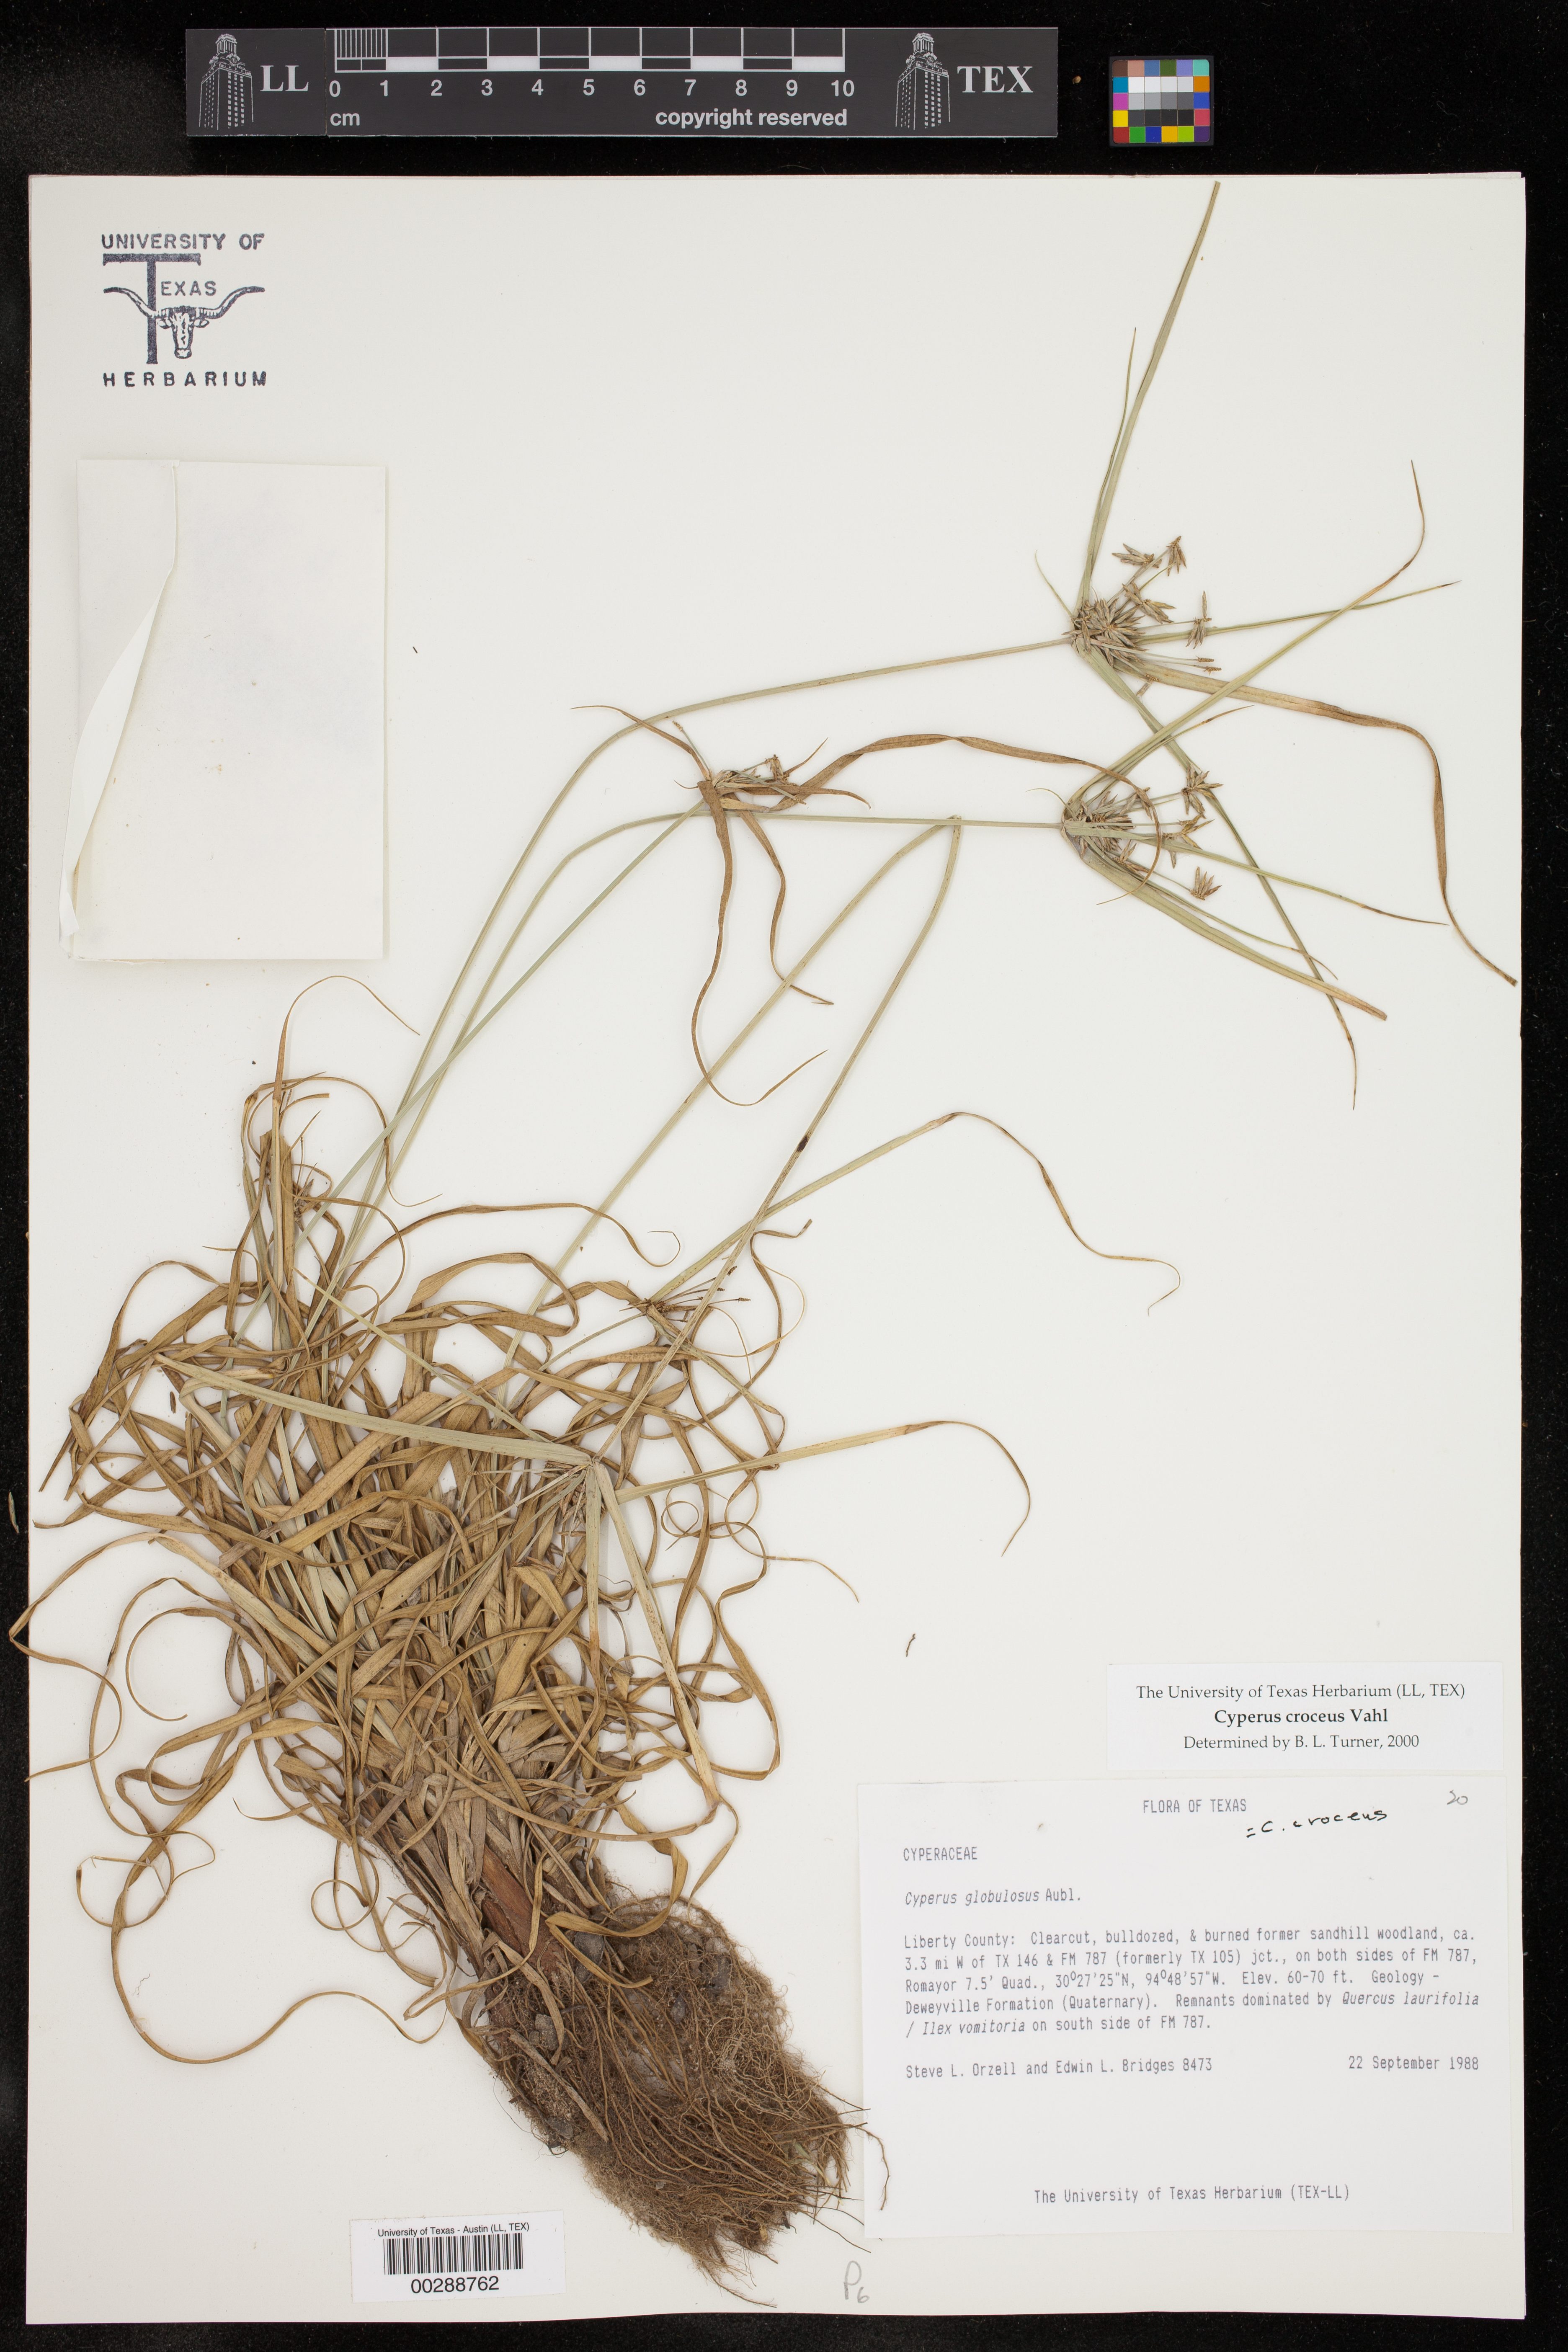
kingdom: Plantae
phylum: Tracheophyta
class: Liliopsida
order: Poales
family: Cyperaceae
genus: Cyperus
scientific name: Cyperus croceus
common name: Baldwin's flatsedge
